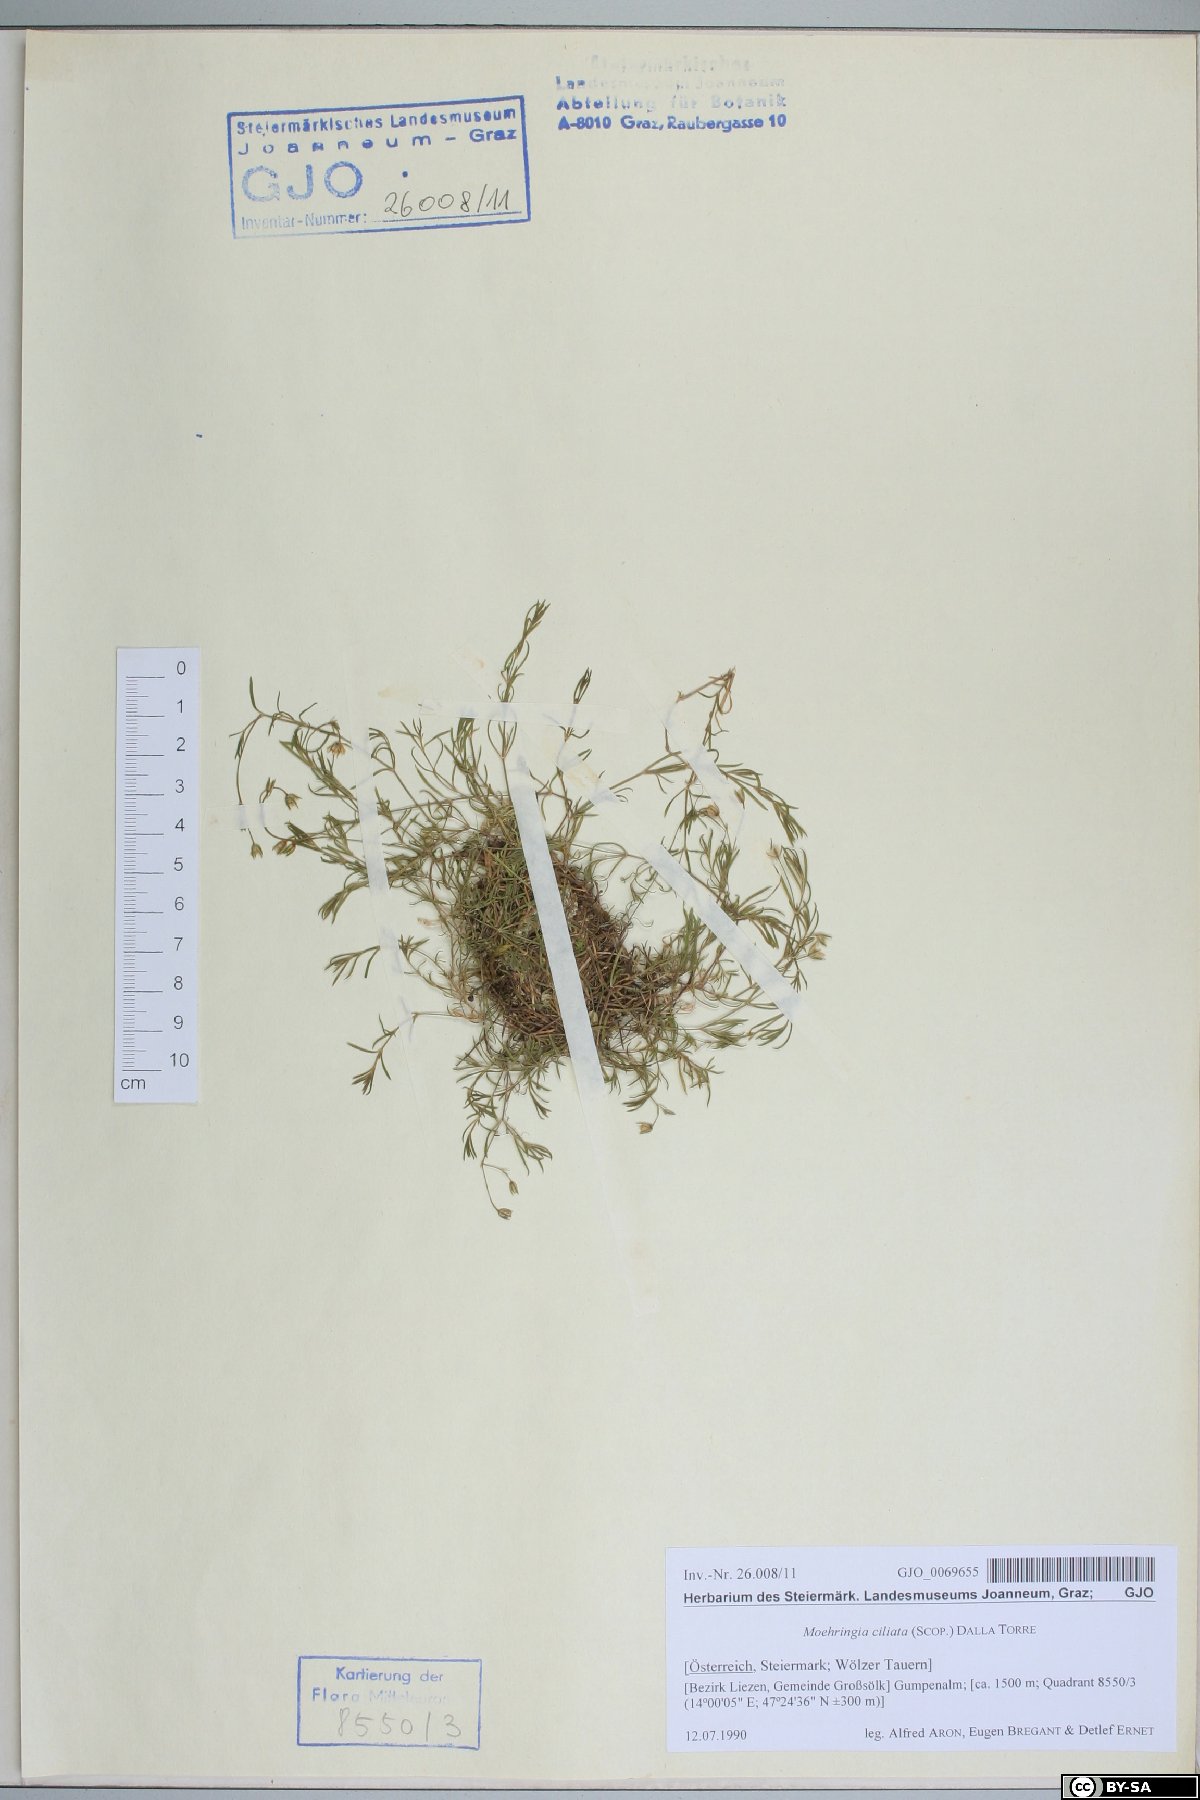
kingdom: Plantae
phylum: Tracheophyta
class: Magnoliopsida
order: Caryophyllales
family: Caryophyllaceae
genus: Moehringia
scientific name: Moehringia ciliata
